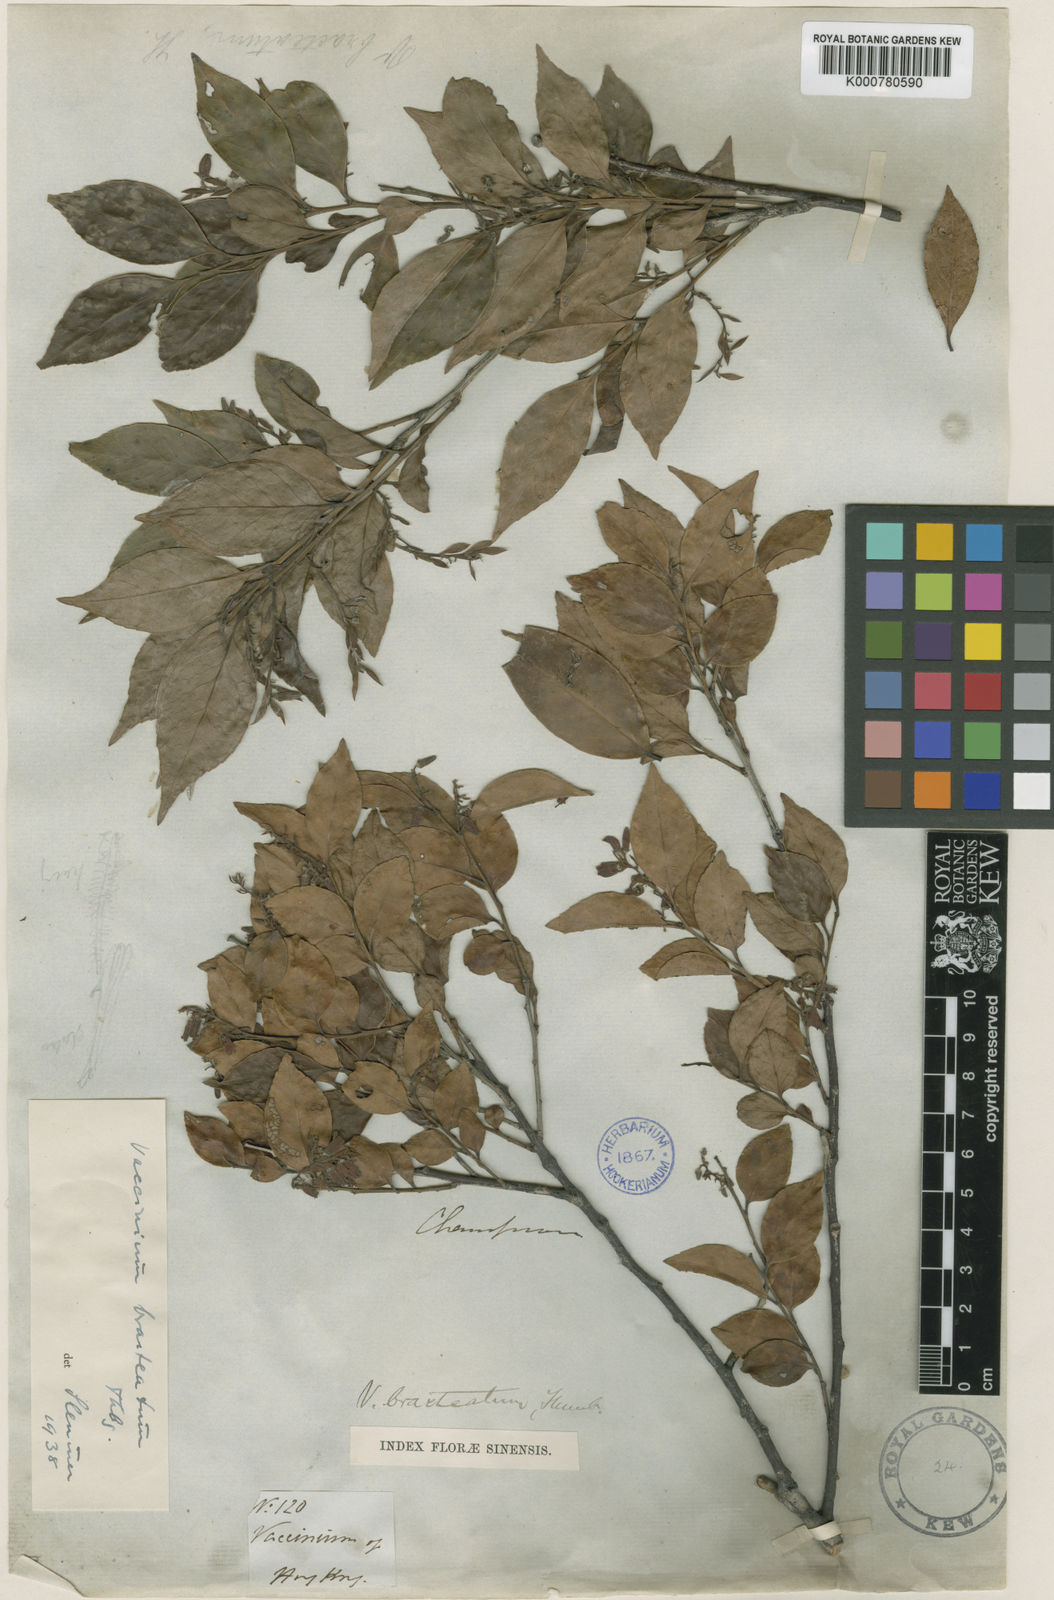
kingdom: Plantae
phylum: Tracheophyta
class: Magnoliopsida
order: Ericales
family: Ericaceae
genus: Vaccinium
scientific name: Vaccinium bracteatum
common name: Sea bilberry
